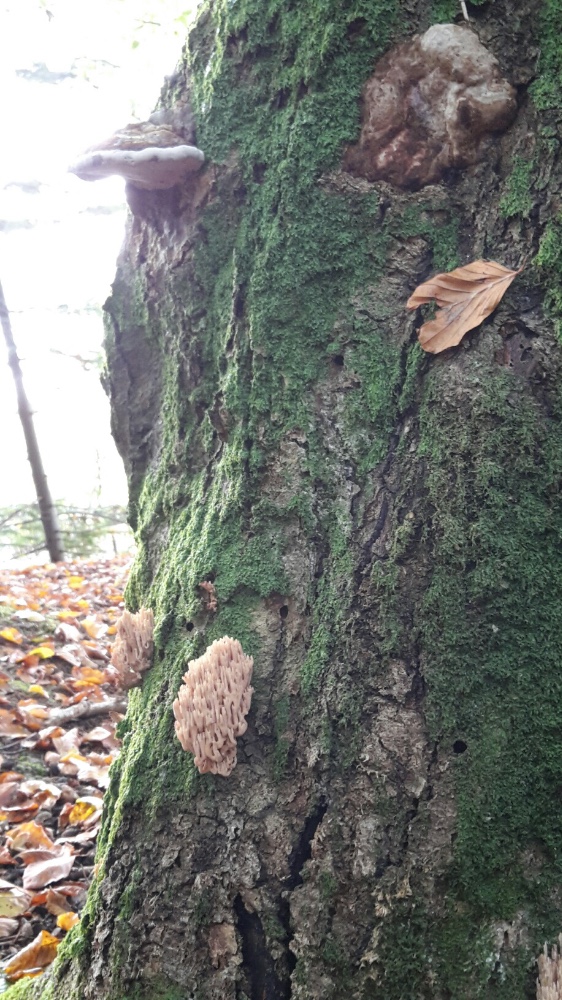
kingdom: Fungi
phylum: Basidiomycota
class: Agaricomycetes
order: Gomphales
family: Gomphaceae
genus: Ramaria
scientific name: Ramaria stricta
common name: rank koralsvamp
